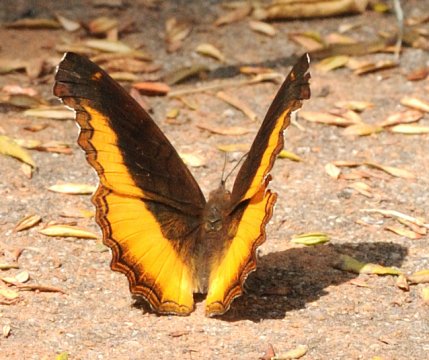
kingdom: Animalia
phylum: Arthropoda
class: Insecta
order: Lepidoptera
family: Nymphalidae
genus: Eurytela
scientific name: Eurytela dryope
